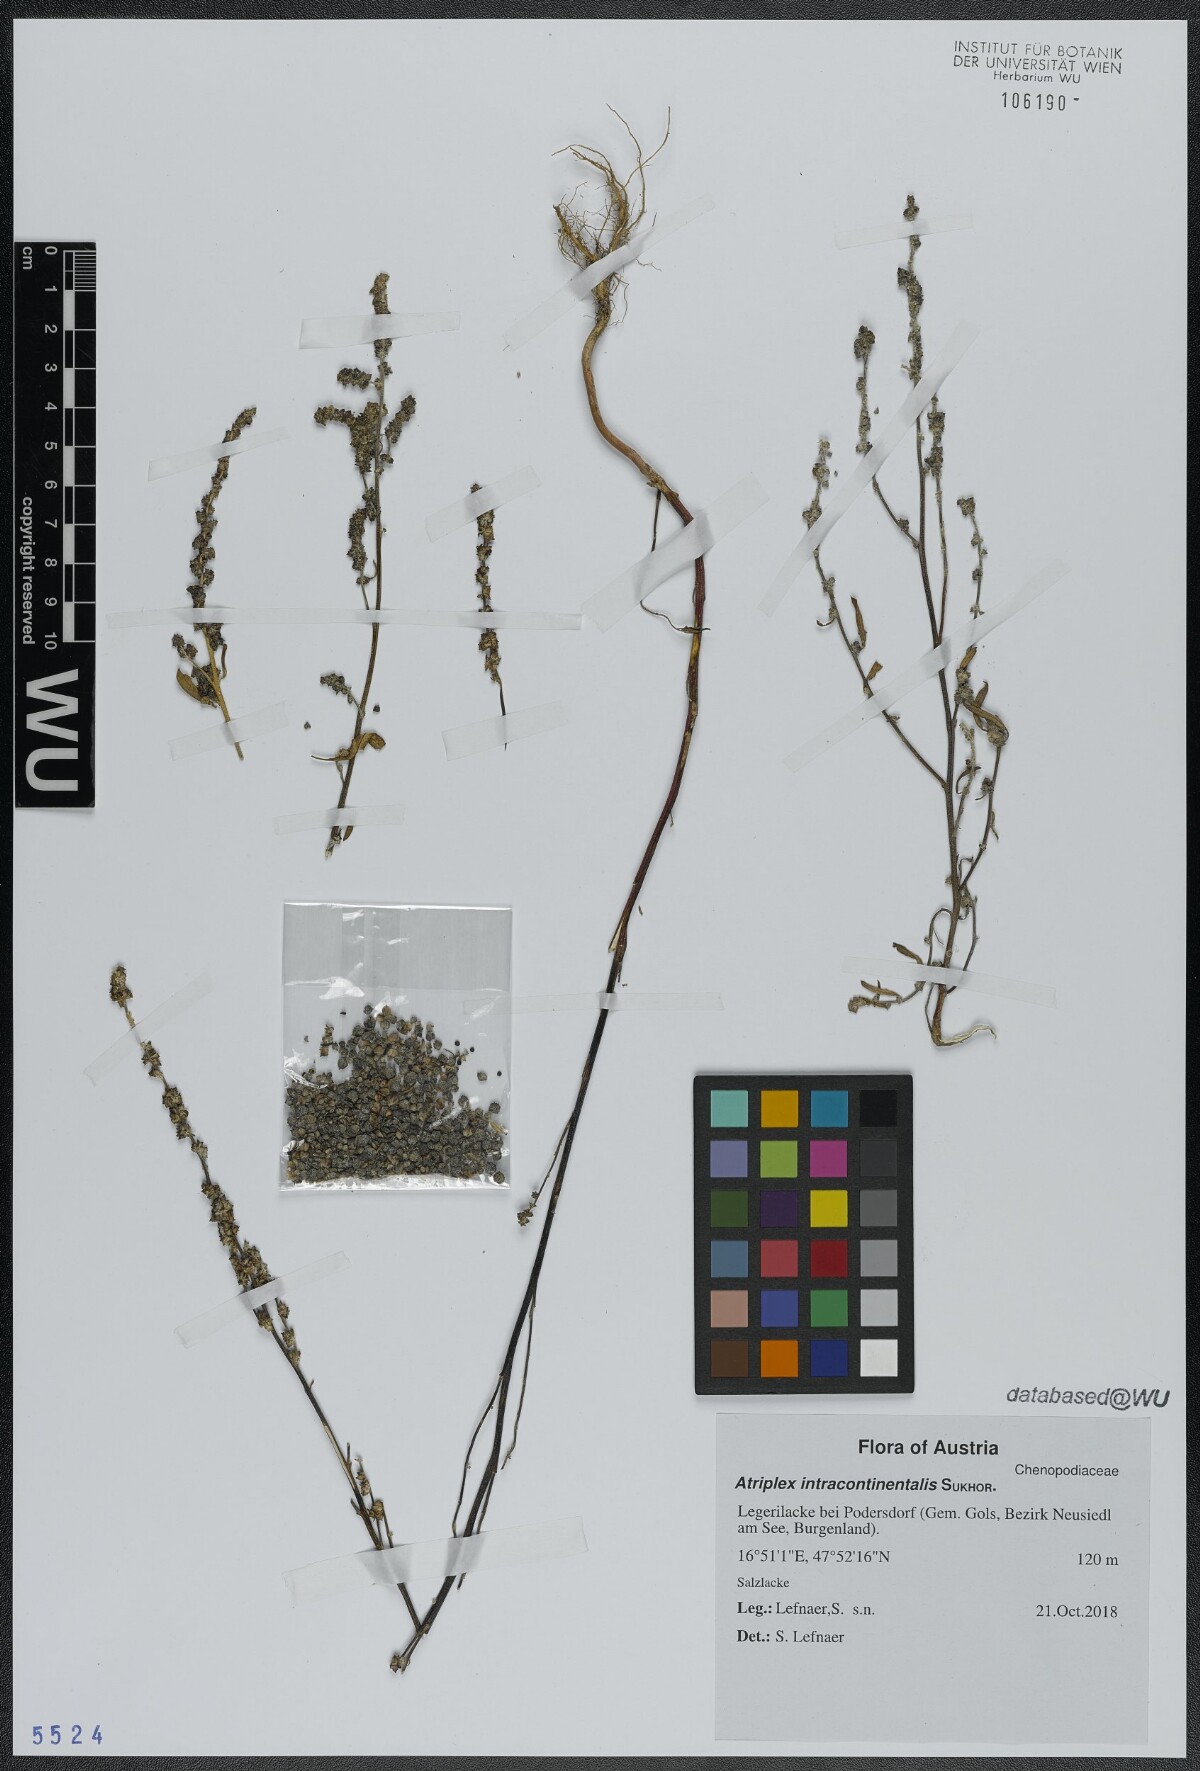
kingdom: Plantae
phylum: Tracheophyta
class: Magnoliopsida
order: Caryophyllales
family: Amaranthaceae
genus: Atriplex
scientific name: Atriplex intracontinentalis
